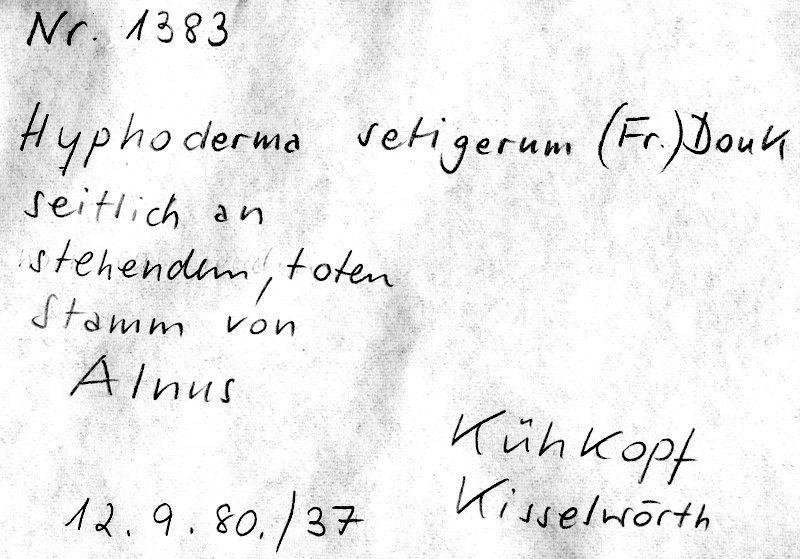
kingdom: Fungi
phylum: Basidiomycota
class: Agaricomycetes
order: Polyporales
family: Hyphodermataceae
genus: Hyphoderma
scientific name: Hyphoderma setigerum
